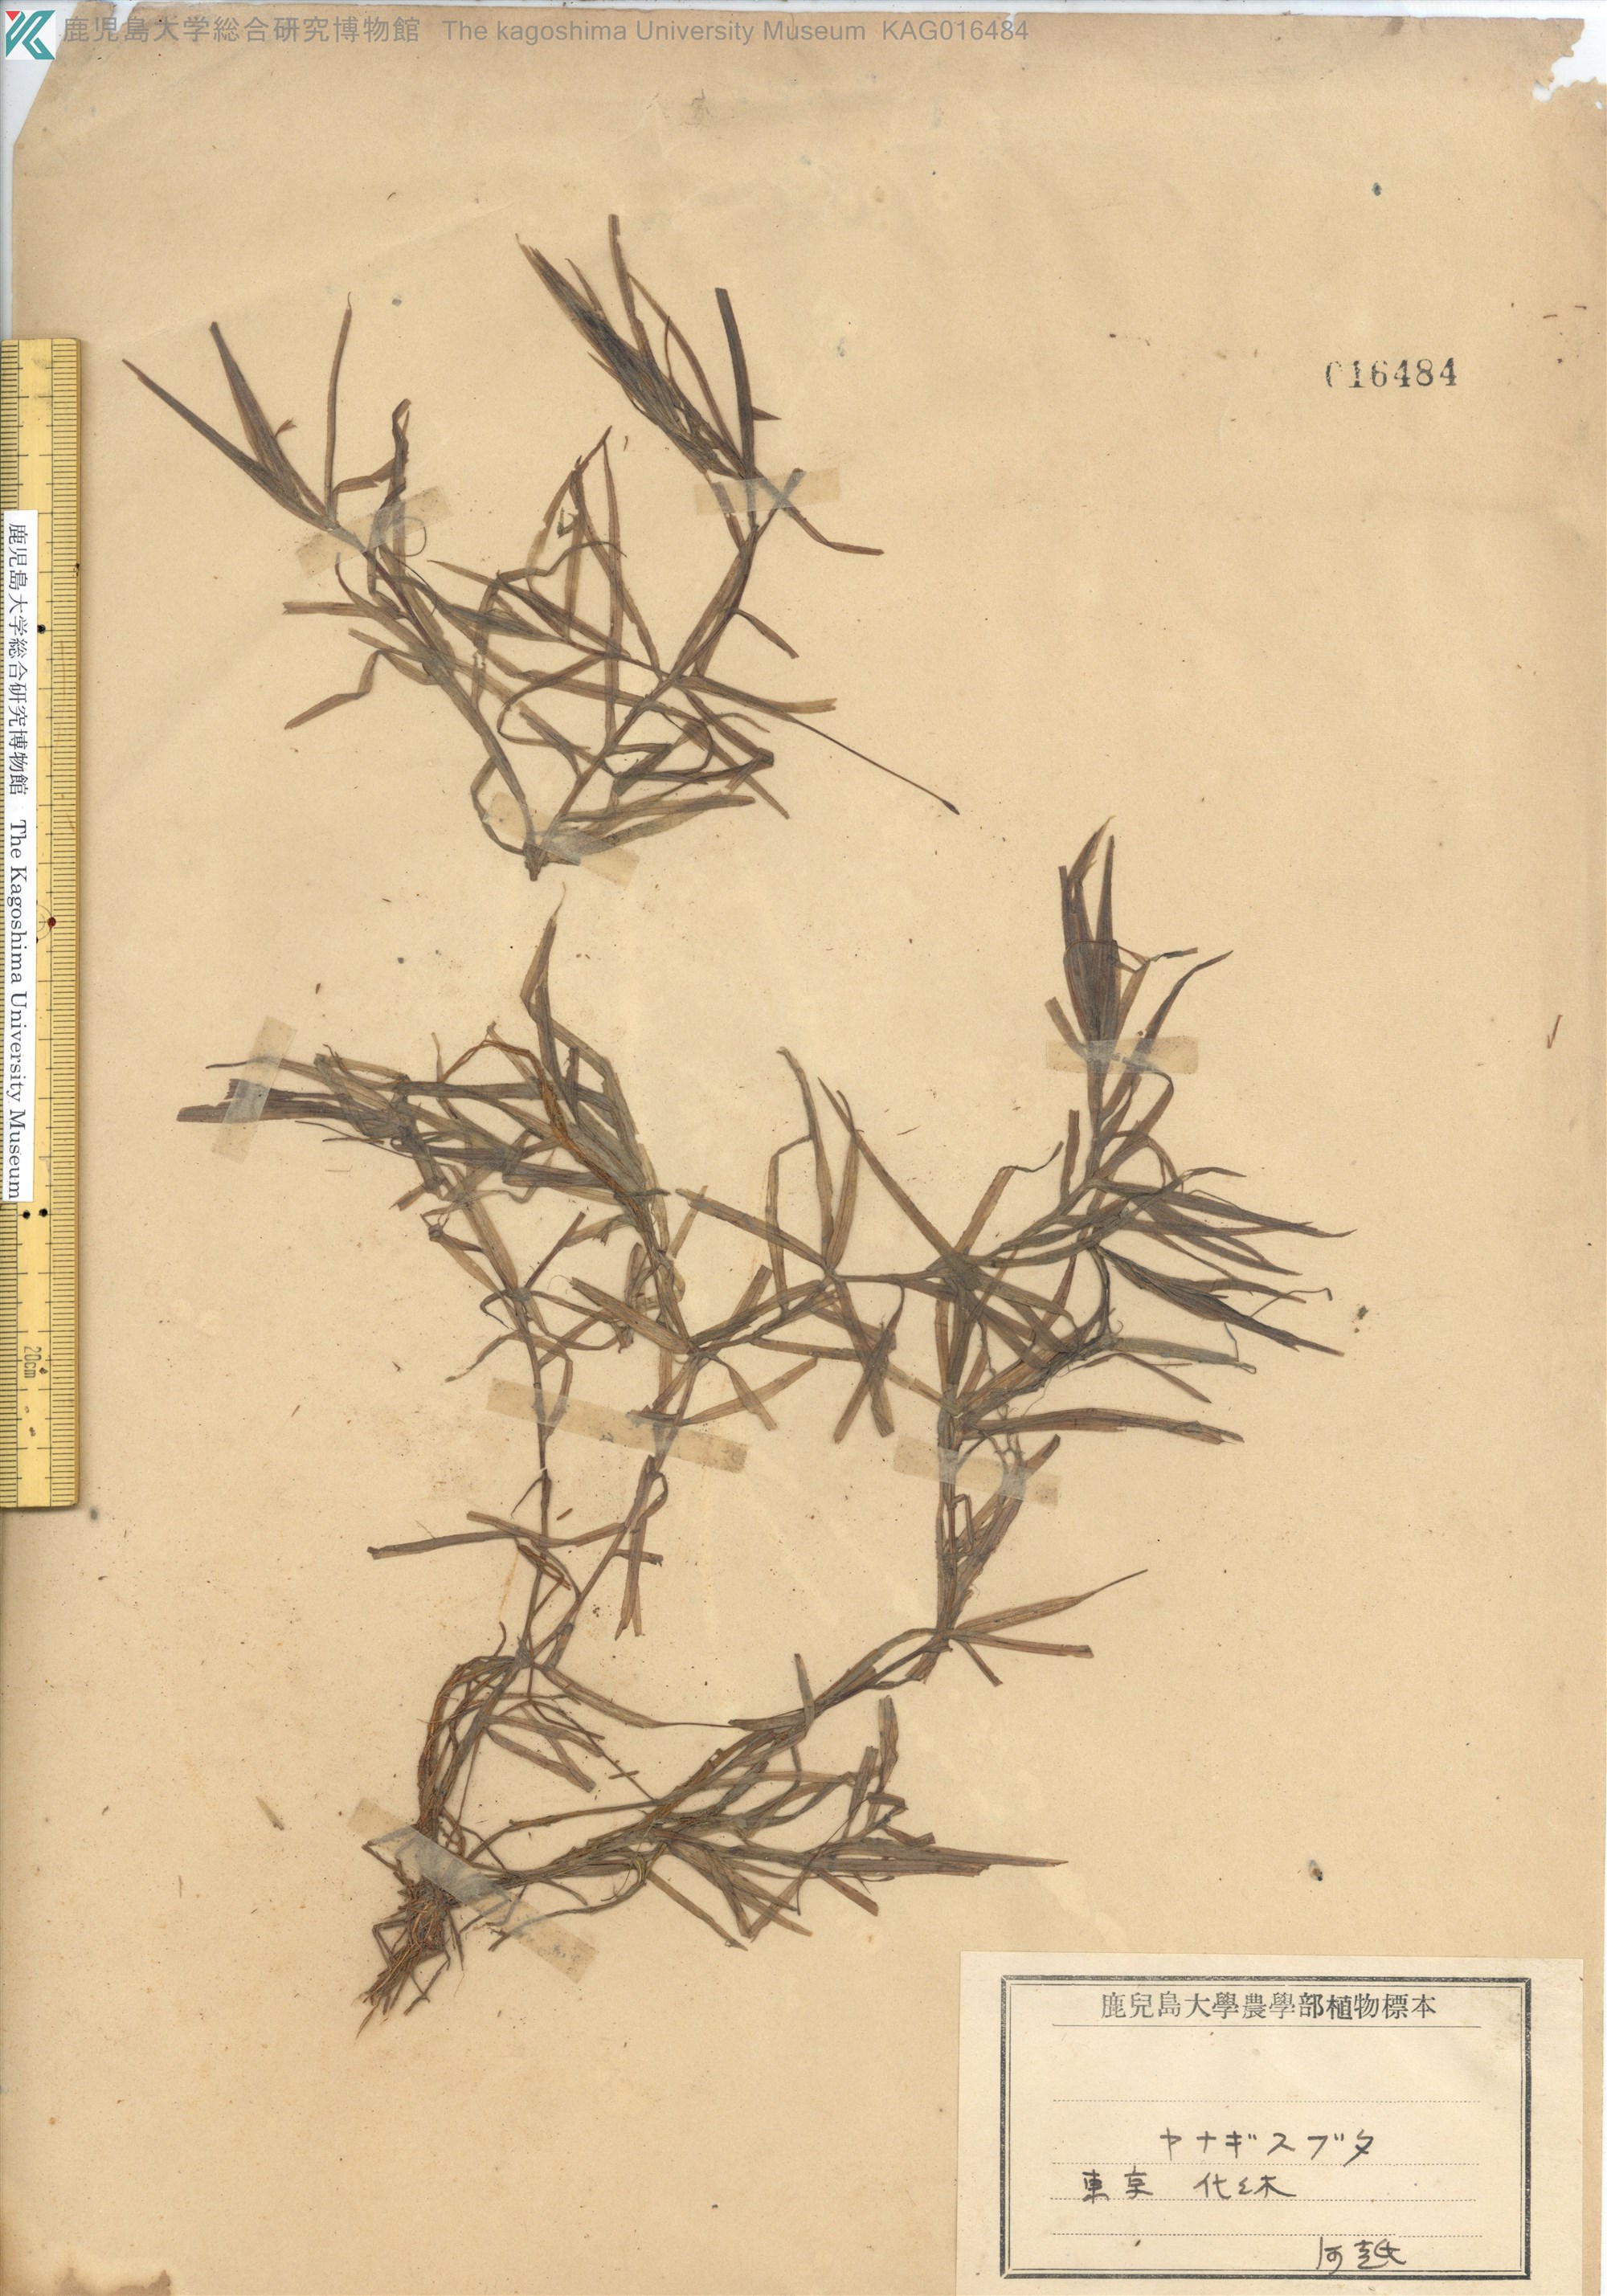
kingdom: Plantae
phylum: Tracheophyta
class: Liliopsida
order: Alismatales
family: Hydrocharitaceae
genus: Blyxa
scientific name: Blyxa japonica
